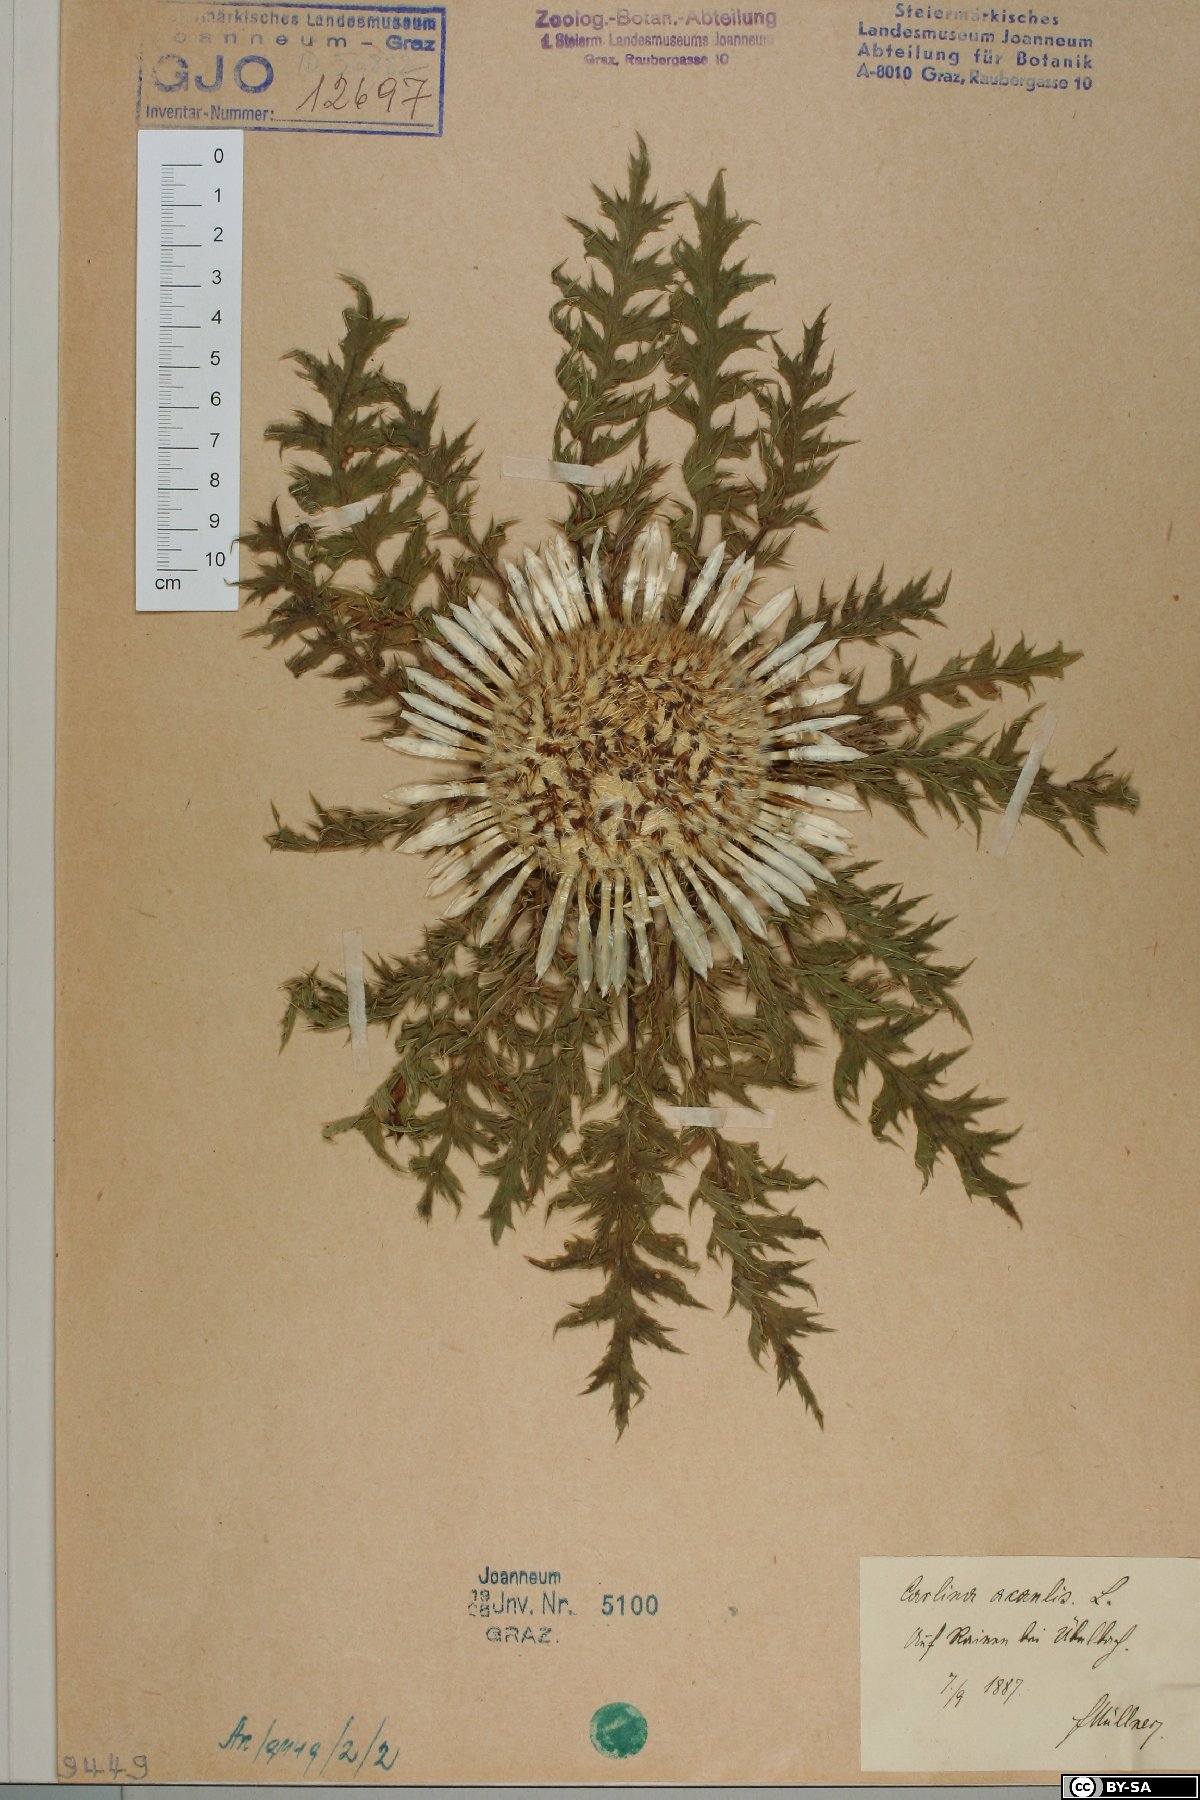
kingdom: Plantae
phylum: Tracheophyta
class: Magnoliopsida
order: Asterales
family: Asteraceae
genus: Carlina
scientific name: Carlina acaulis
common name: Stemless carline thistle
